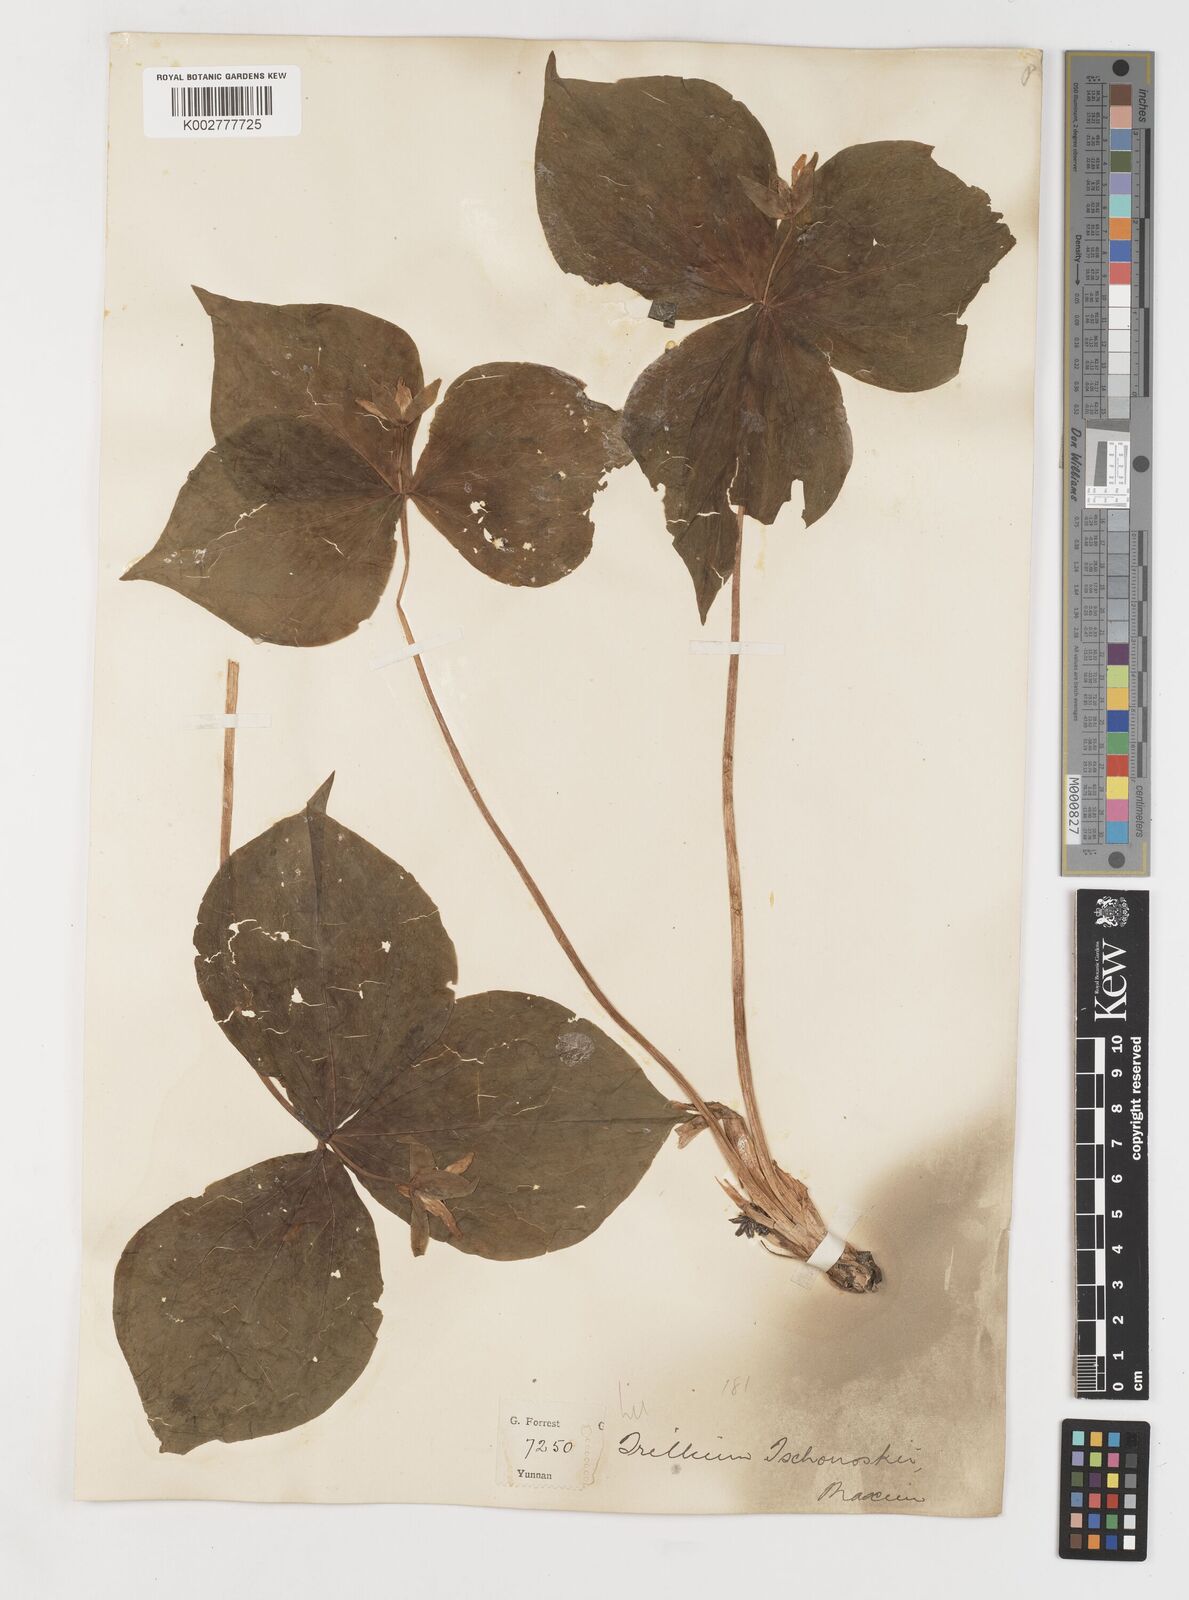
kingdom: Plantae
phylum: Tracheophyta
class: Liliopsida
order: Liliales
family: Melanthiaceae
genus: Trillium
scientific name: Trillium tschonoskii
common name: A pearl on head
